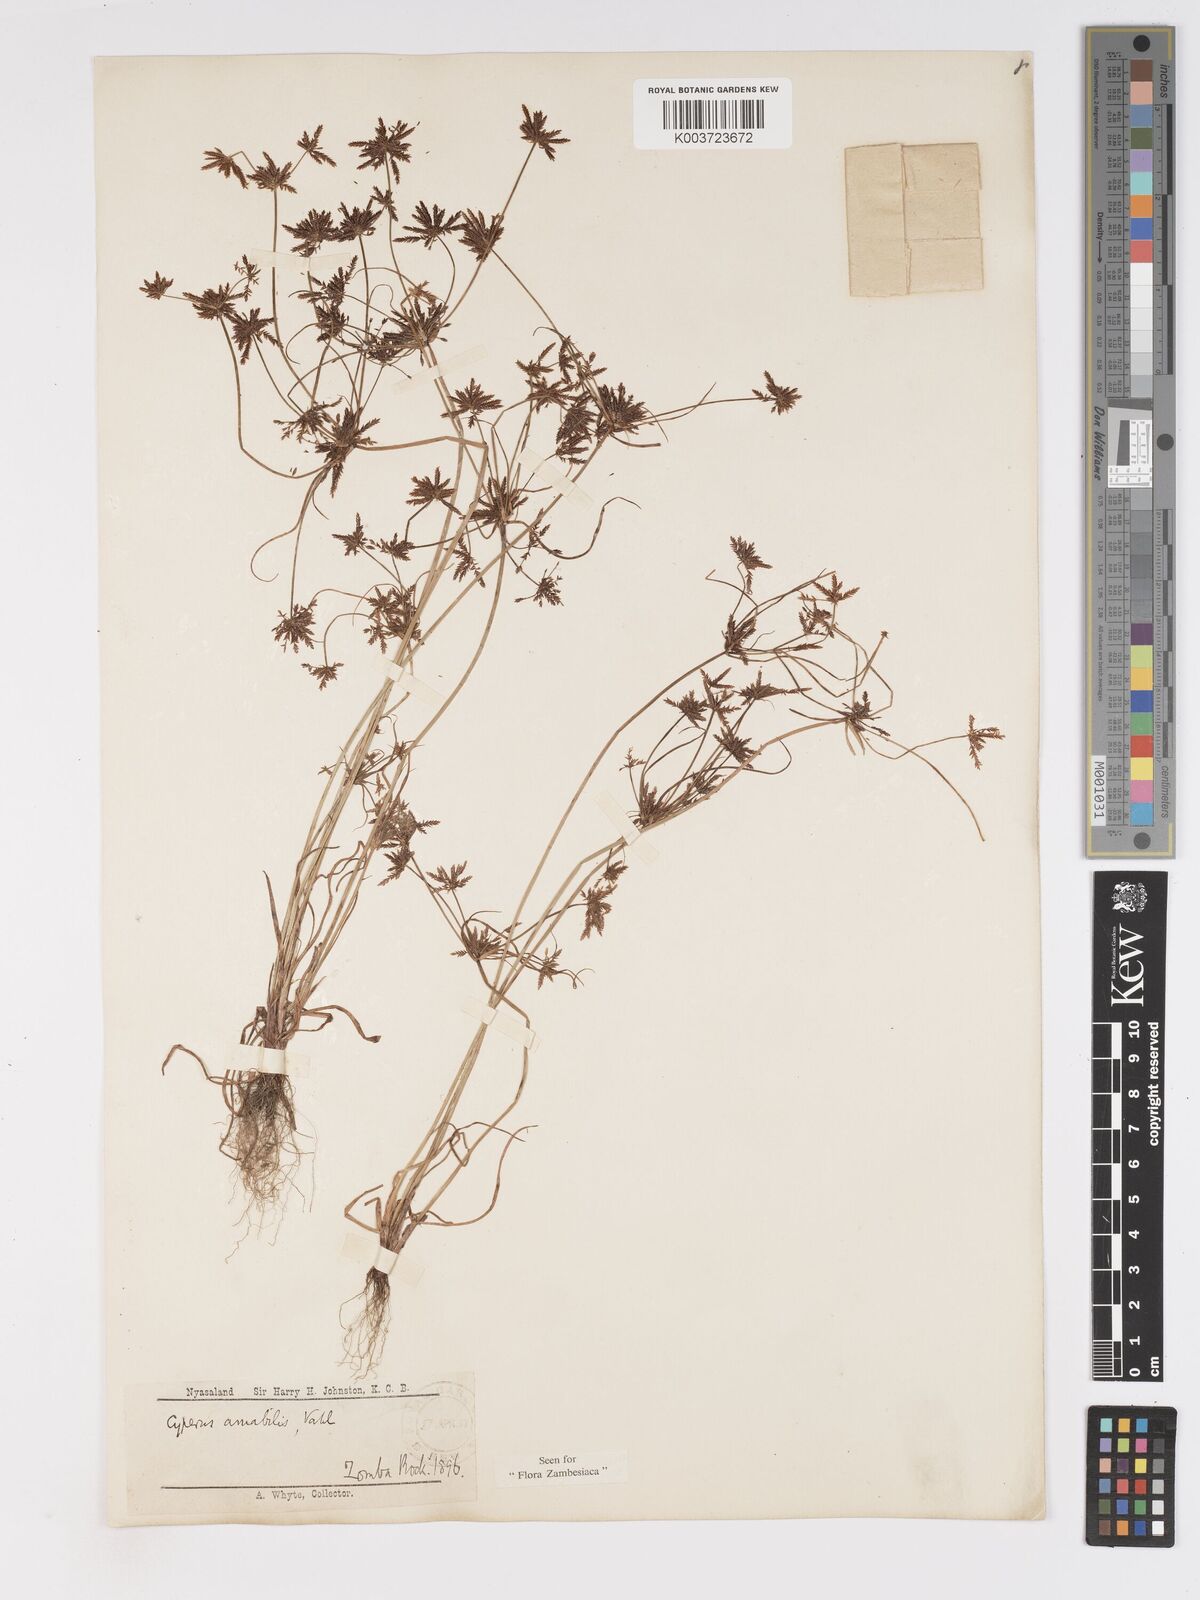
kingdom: Plantae
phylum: Tracheophyta
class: Liliopsida
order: Poales
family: Cyperaceae
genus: Cyperus
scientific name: Cyperus amabilis
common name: Foothill flat sedge
